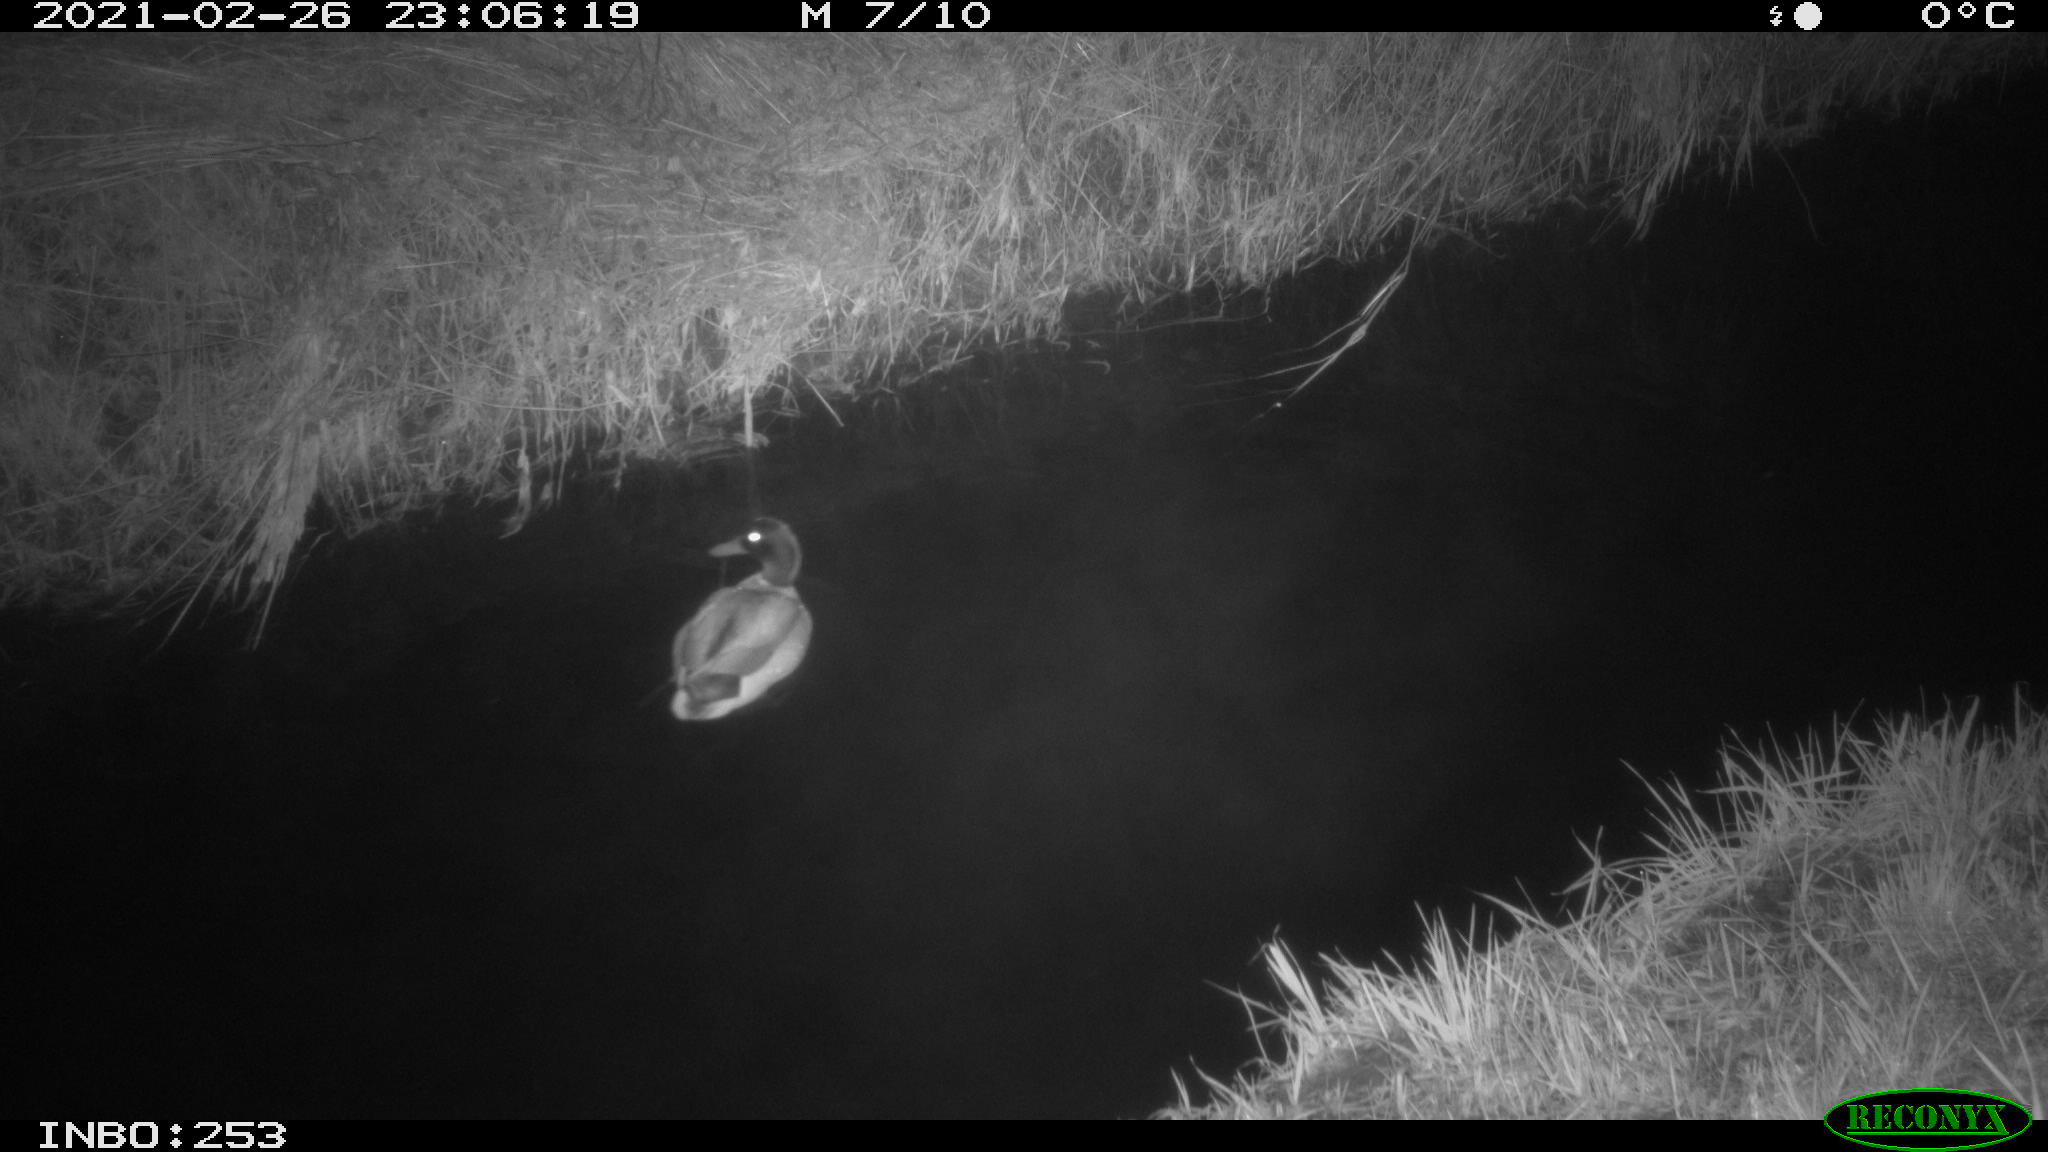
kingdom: Animalia
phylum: Chordata
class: Aves
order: Anseriformes
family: Anatidae
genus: Anas
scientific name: Anas platyrhynchos
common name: Mallard
